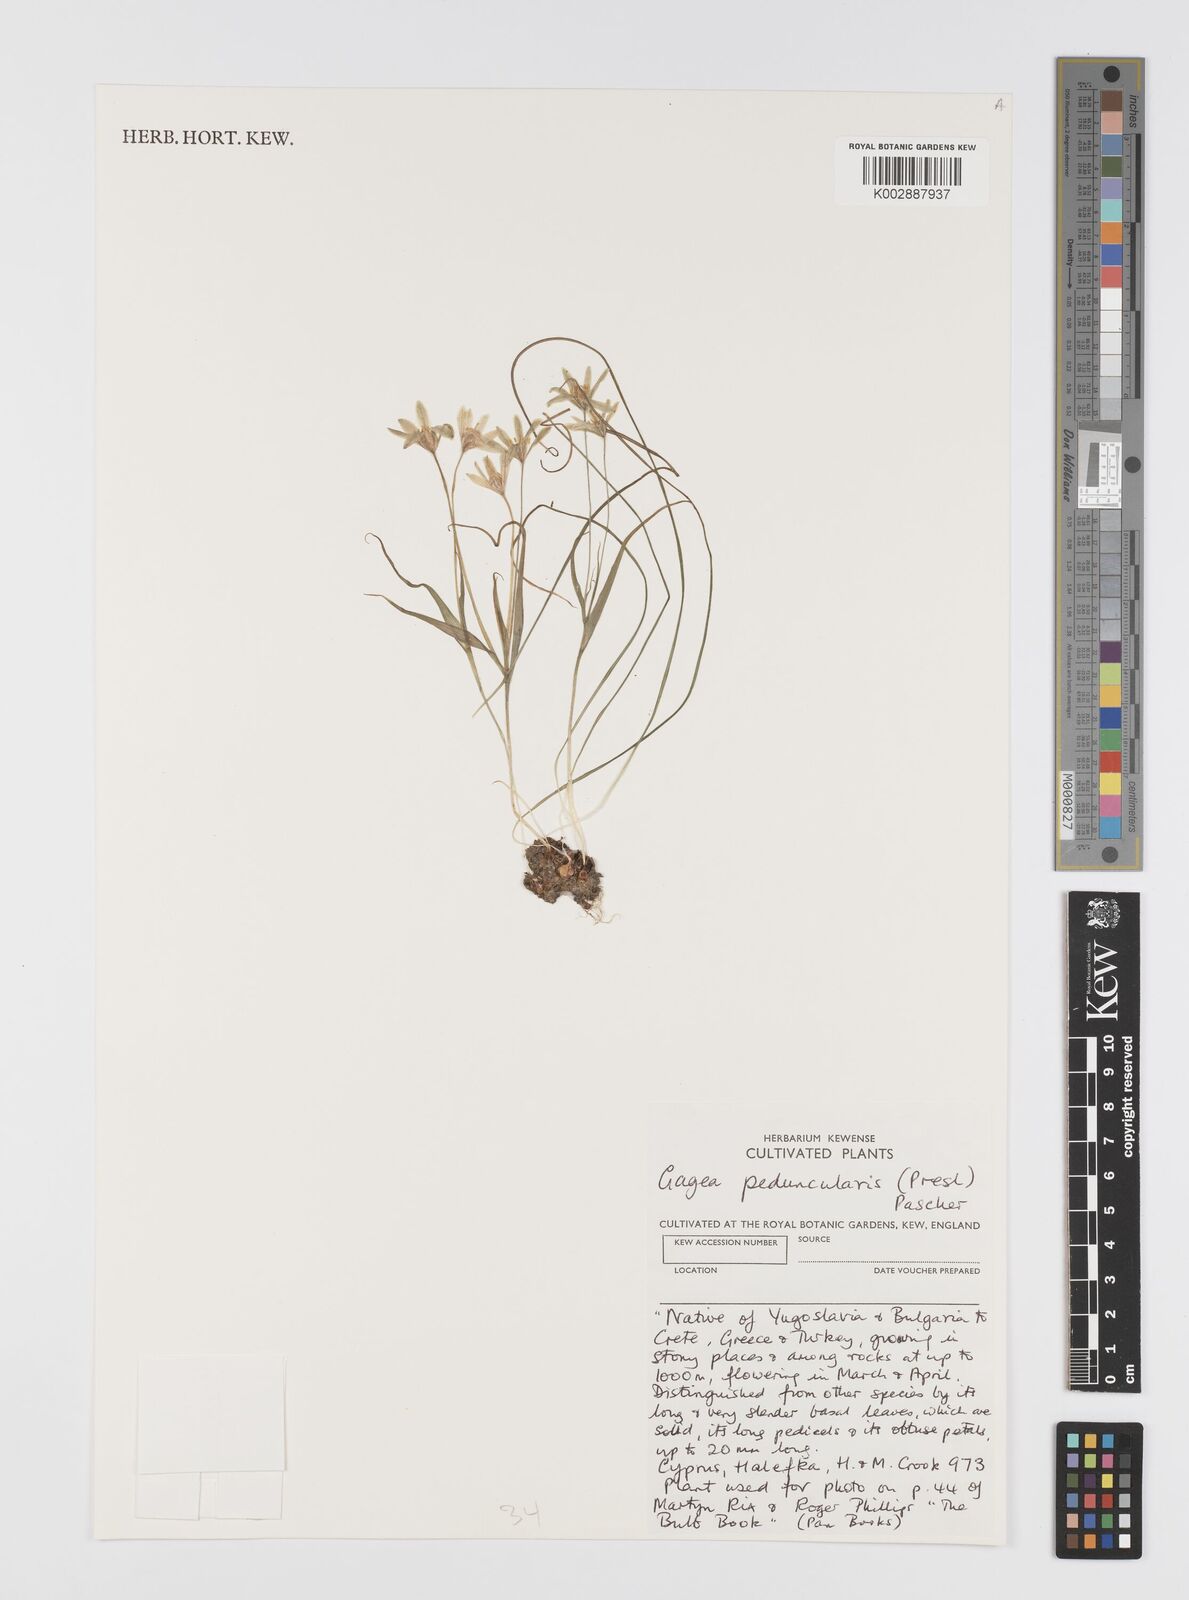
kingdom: Plantae
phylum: Tracheophyta
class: Liliopsida
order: Liliales
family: Liliaceae
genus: Gagea
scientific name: Gagea peduncularis
